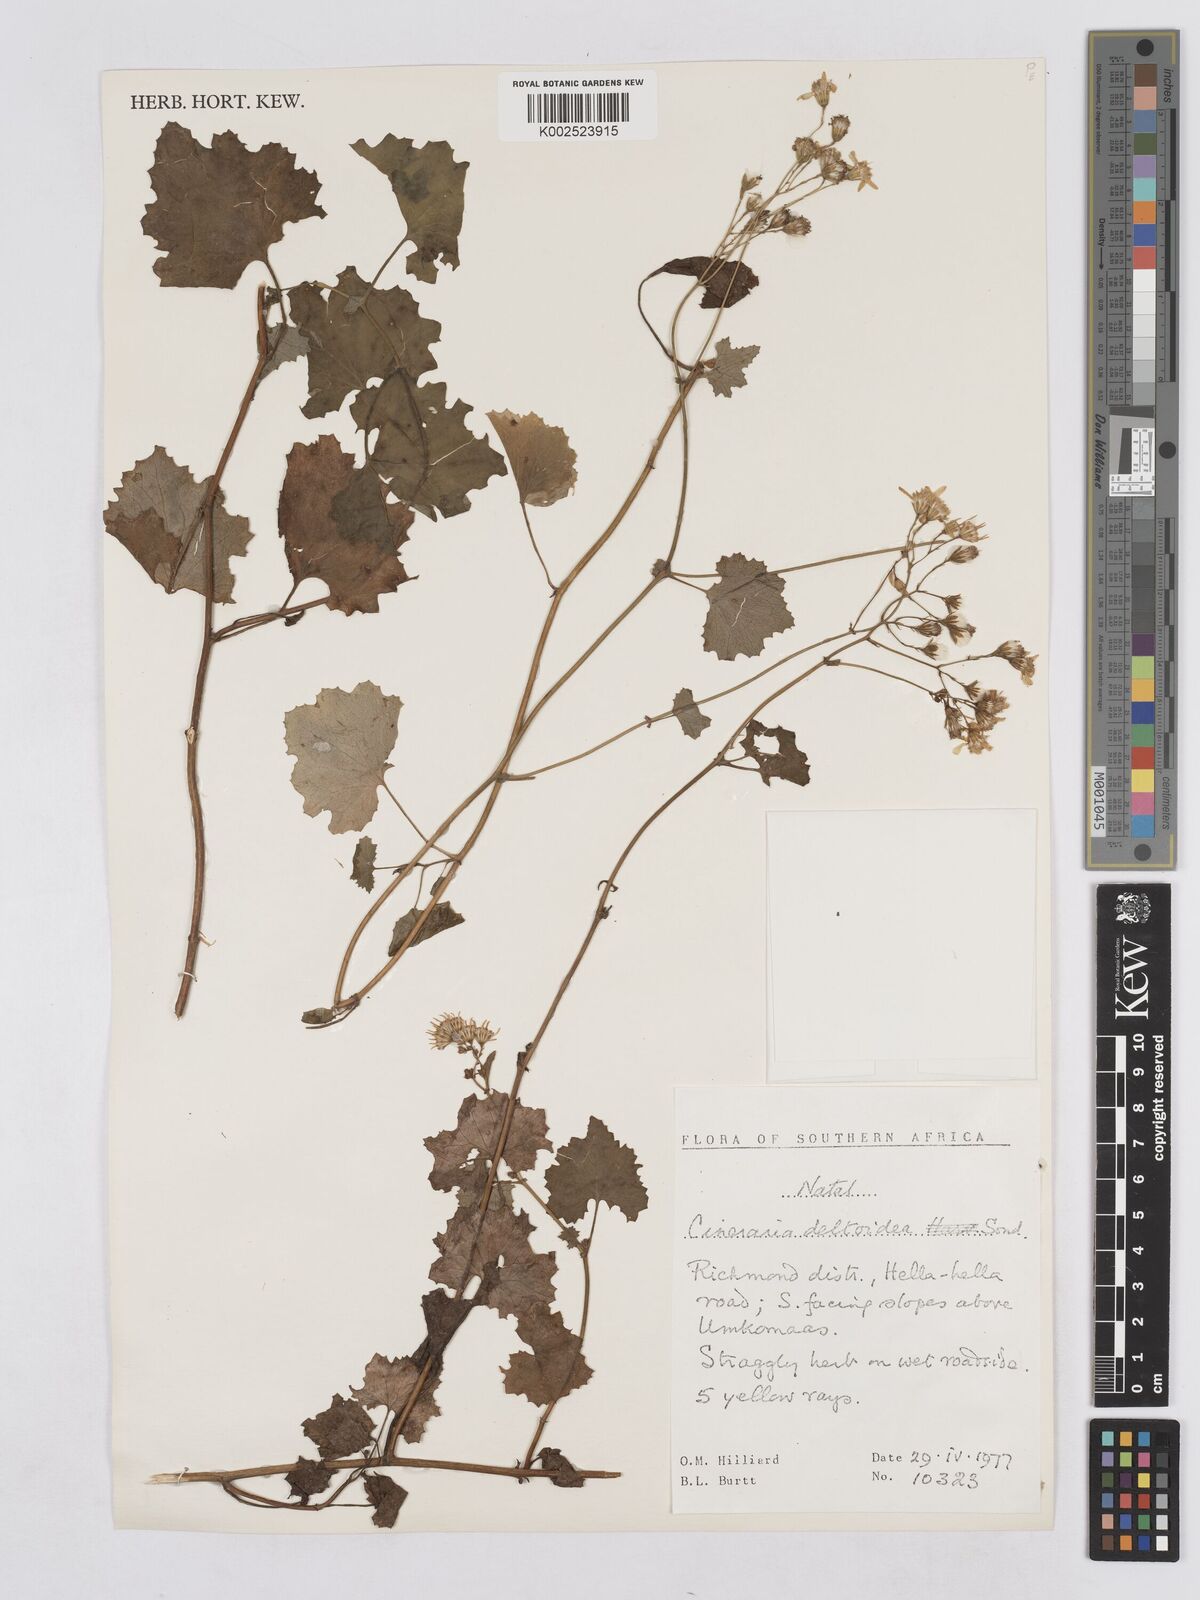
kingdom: Plantae
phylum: Tracheophyta
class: Magnoliopsida
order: Asterales
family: Asteraceae
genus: Senecio
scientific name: Senecio deltoideus
